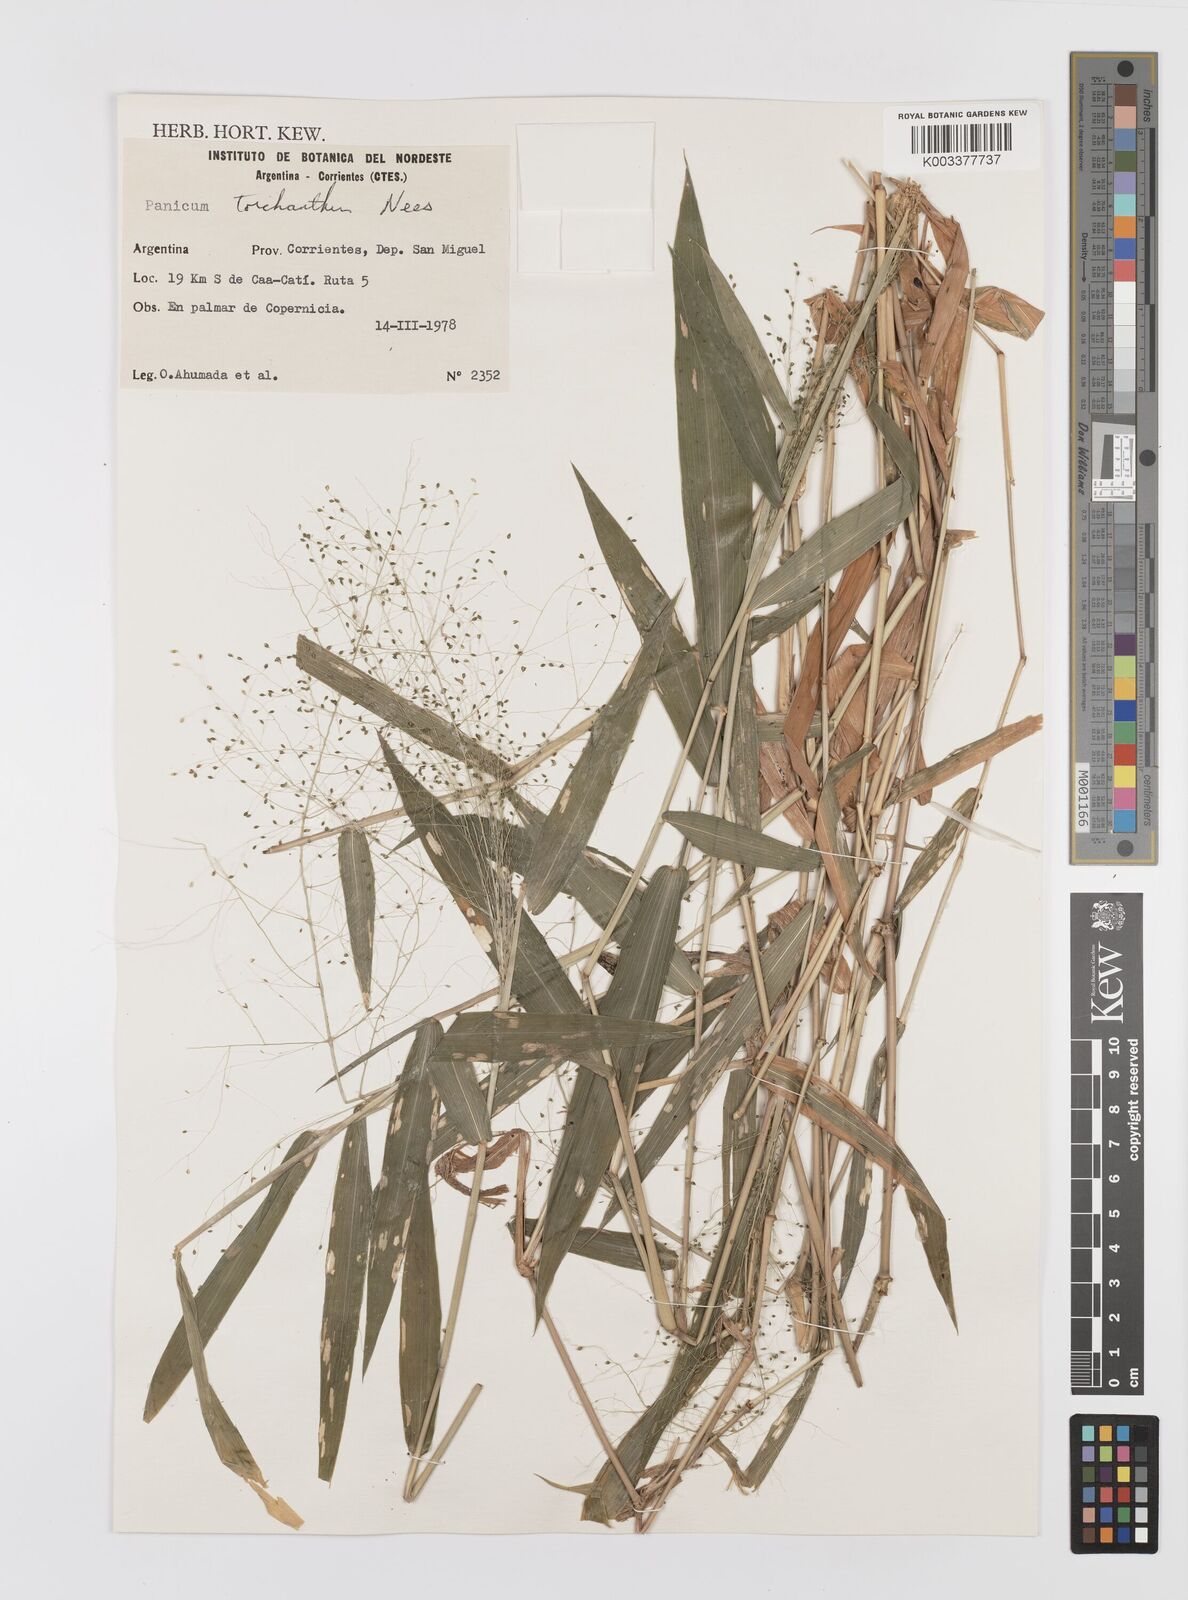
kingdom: Plantae
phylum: Tracheophyta
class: Liliopsida
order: Poales
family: Poaceae
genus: Panicum
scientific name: Panicum trichanthum
